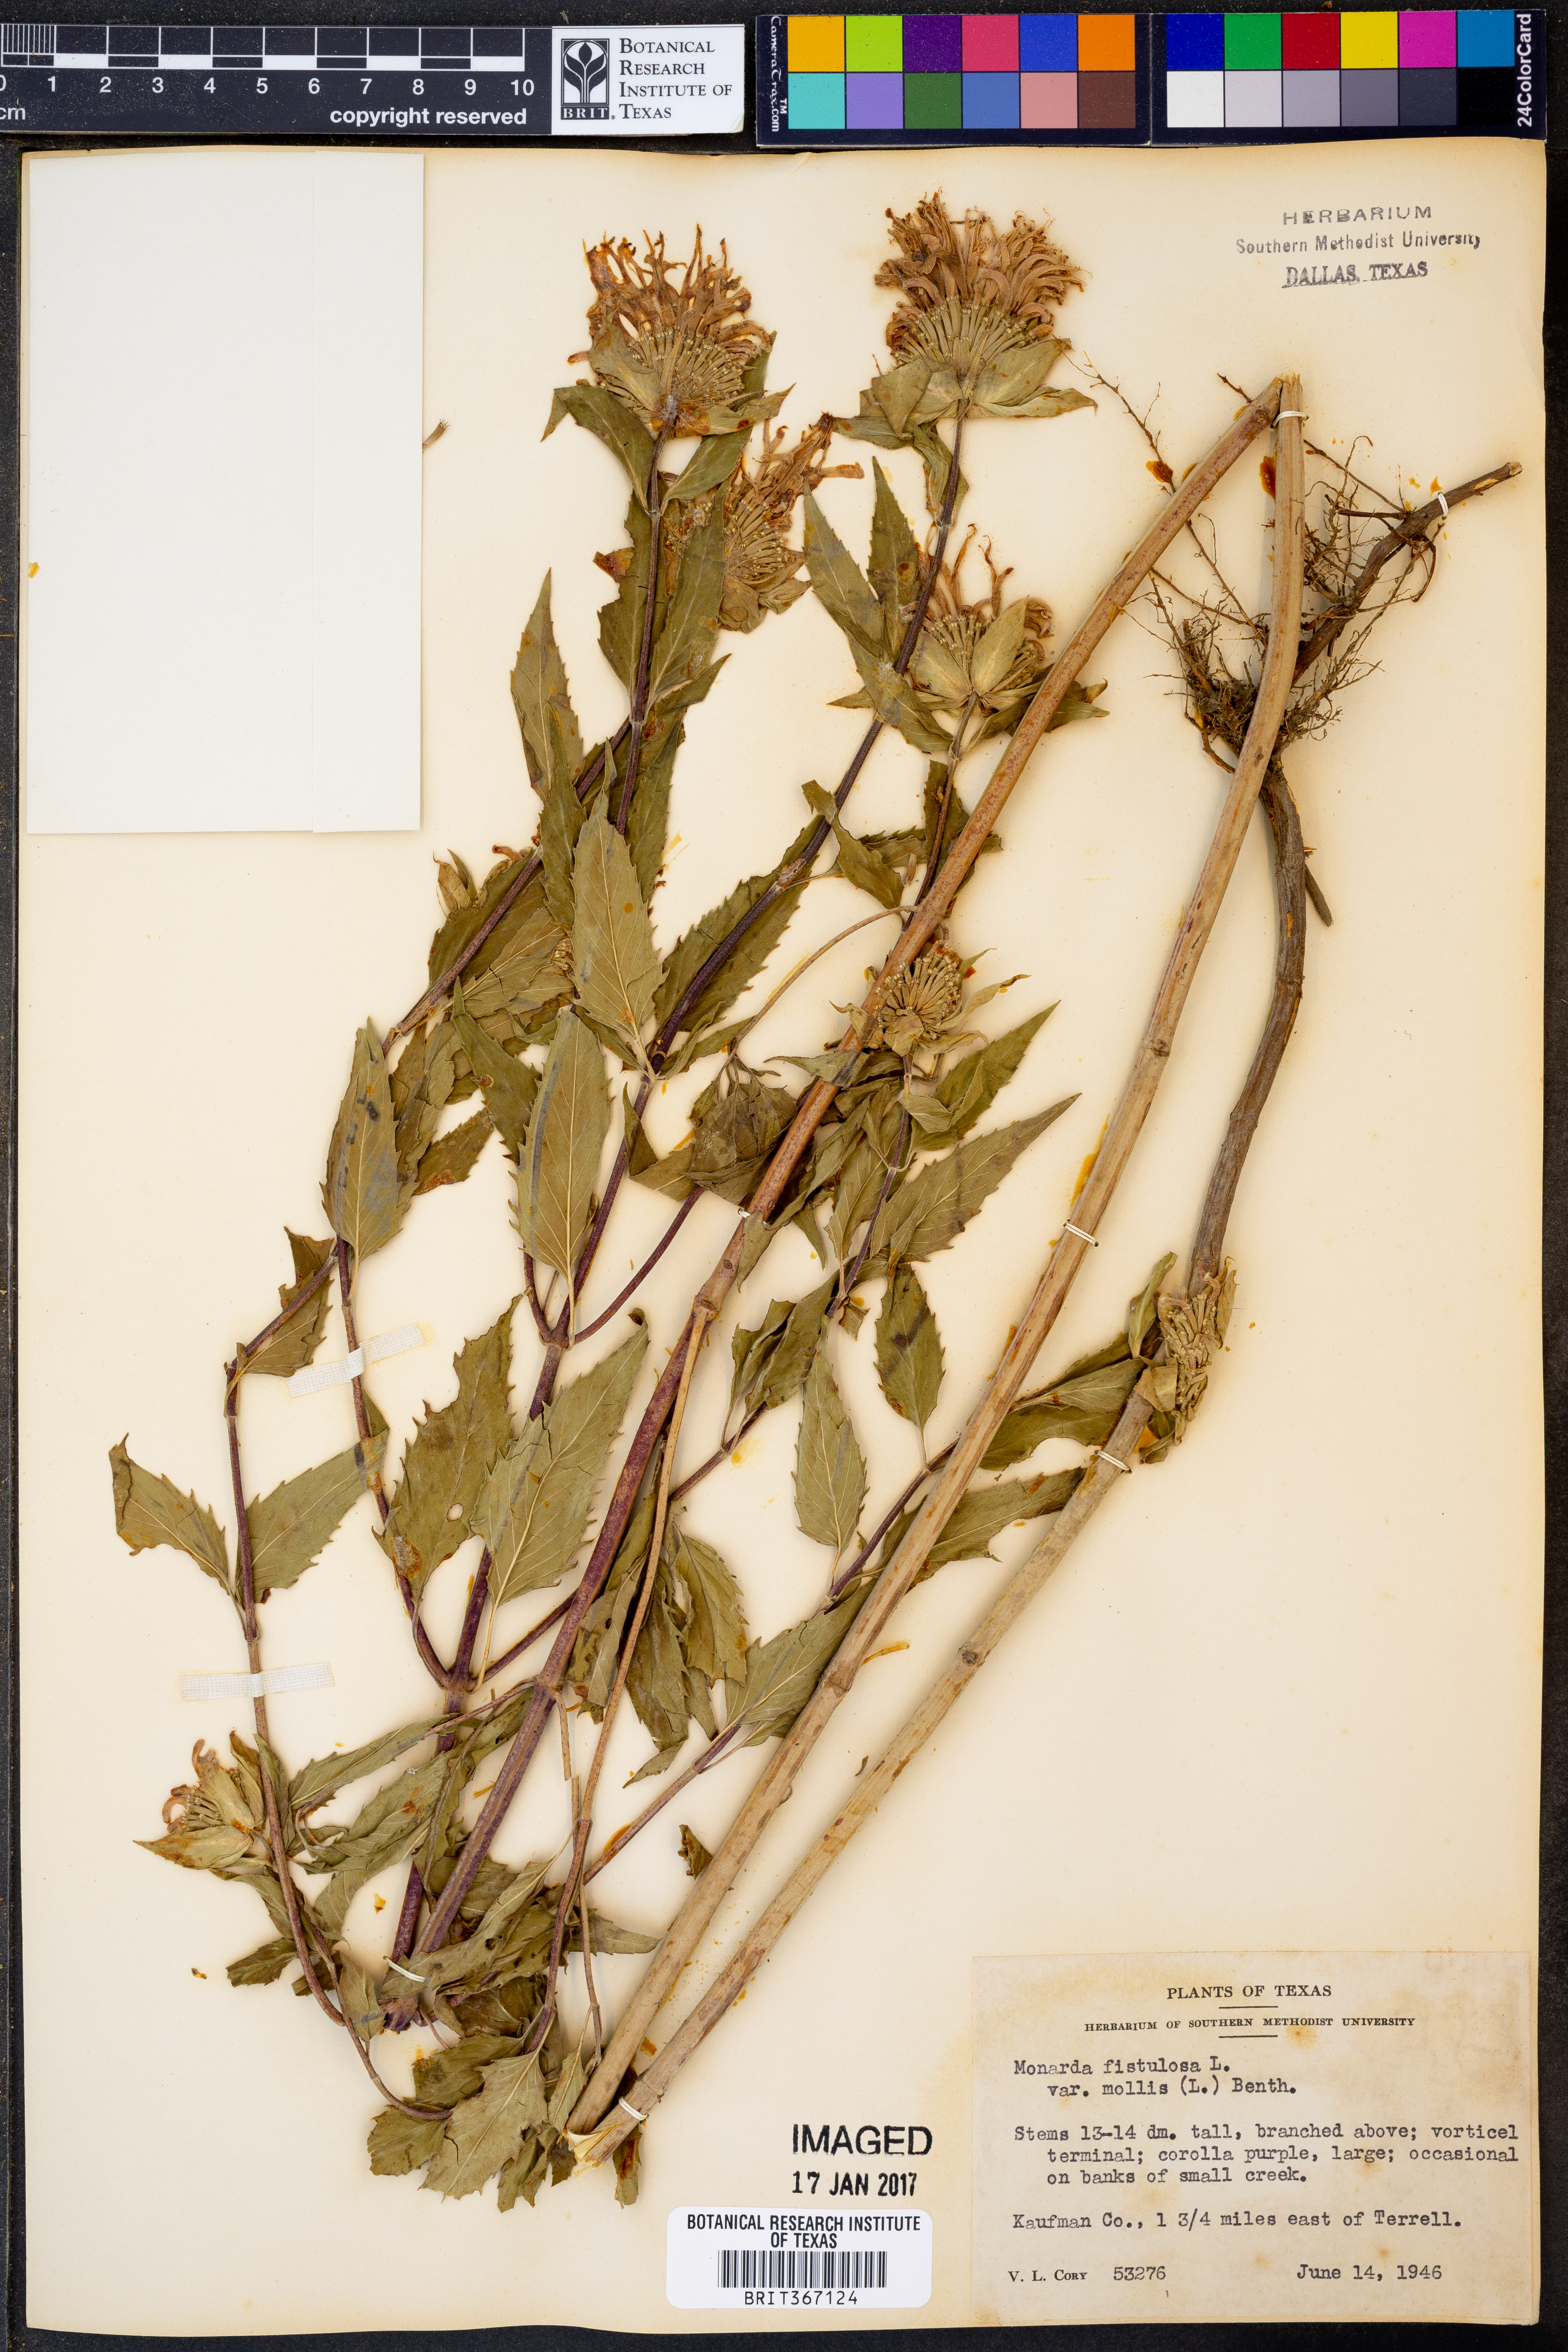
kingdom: Plantae
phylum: Tracheophyta
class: Magnoliopsida
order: Lamiales
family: Lamiaceae
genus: Monarda
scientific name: Monarda fistulosa
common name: Purple beebalm
